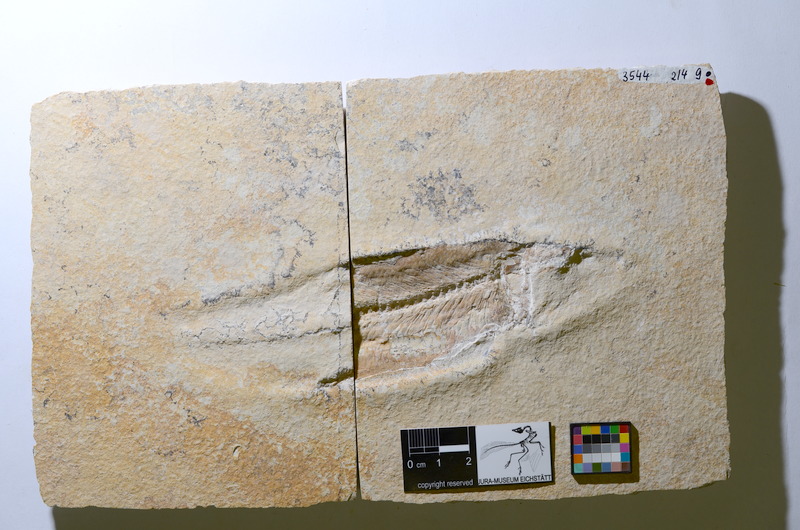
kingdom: Animalia
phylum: Chordata
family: Ascalaboidae
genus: Tharsis
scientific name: Tharsis dubius
